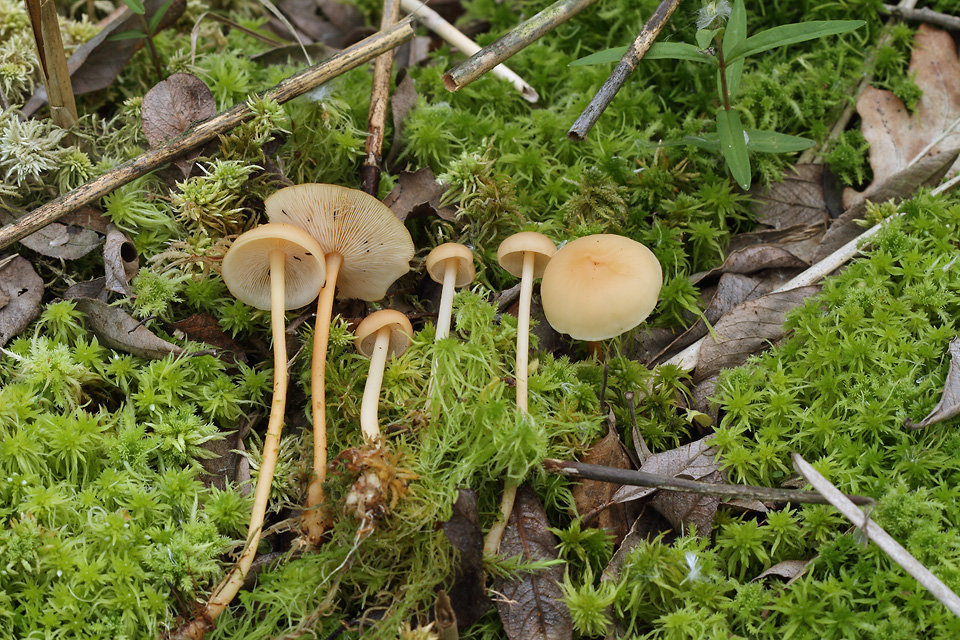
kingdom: Fungi
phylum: Basidiomycota
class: Agaricomycetes
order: Agaricales
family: Omphalotaceae
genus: Gymnopus
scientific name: Gymnopus aquosus
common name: bleg fladhat
